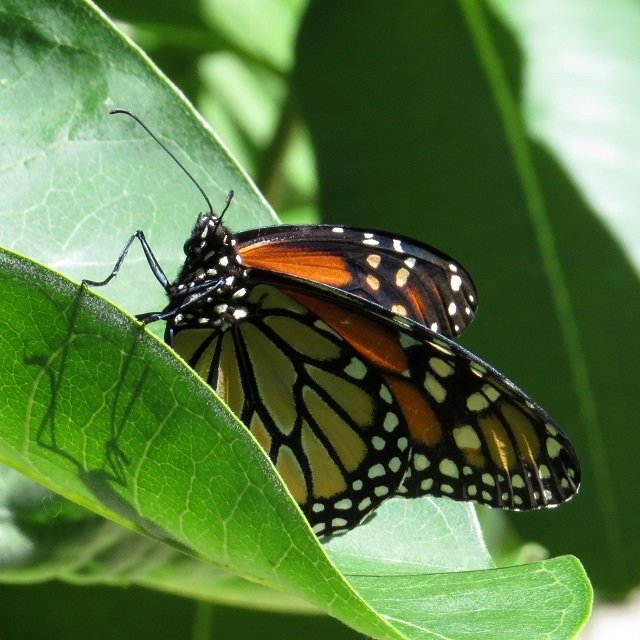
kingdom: Animalia
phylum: Arthropoda
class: Insecta
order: Lepidoptera
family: Nymphalidae
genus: Danaus
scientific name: Danaus plexippus
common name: Monarch
